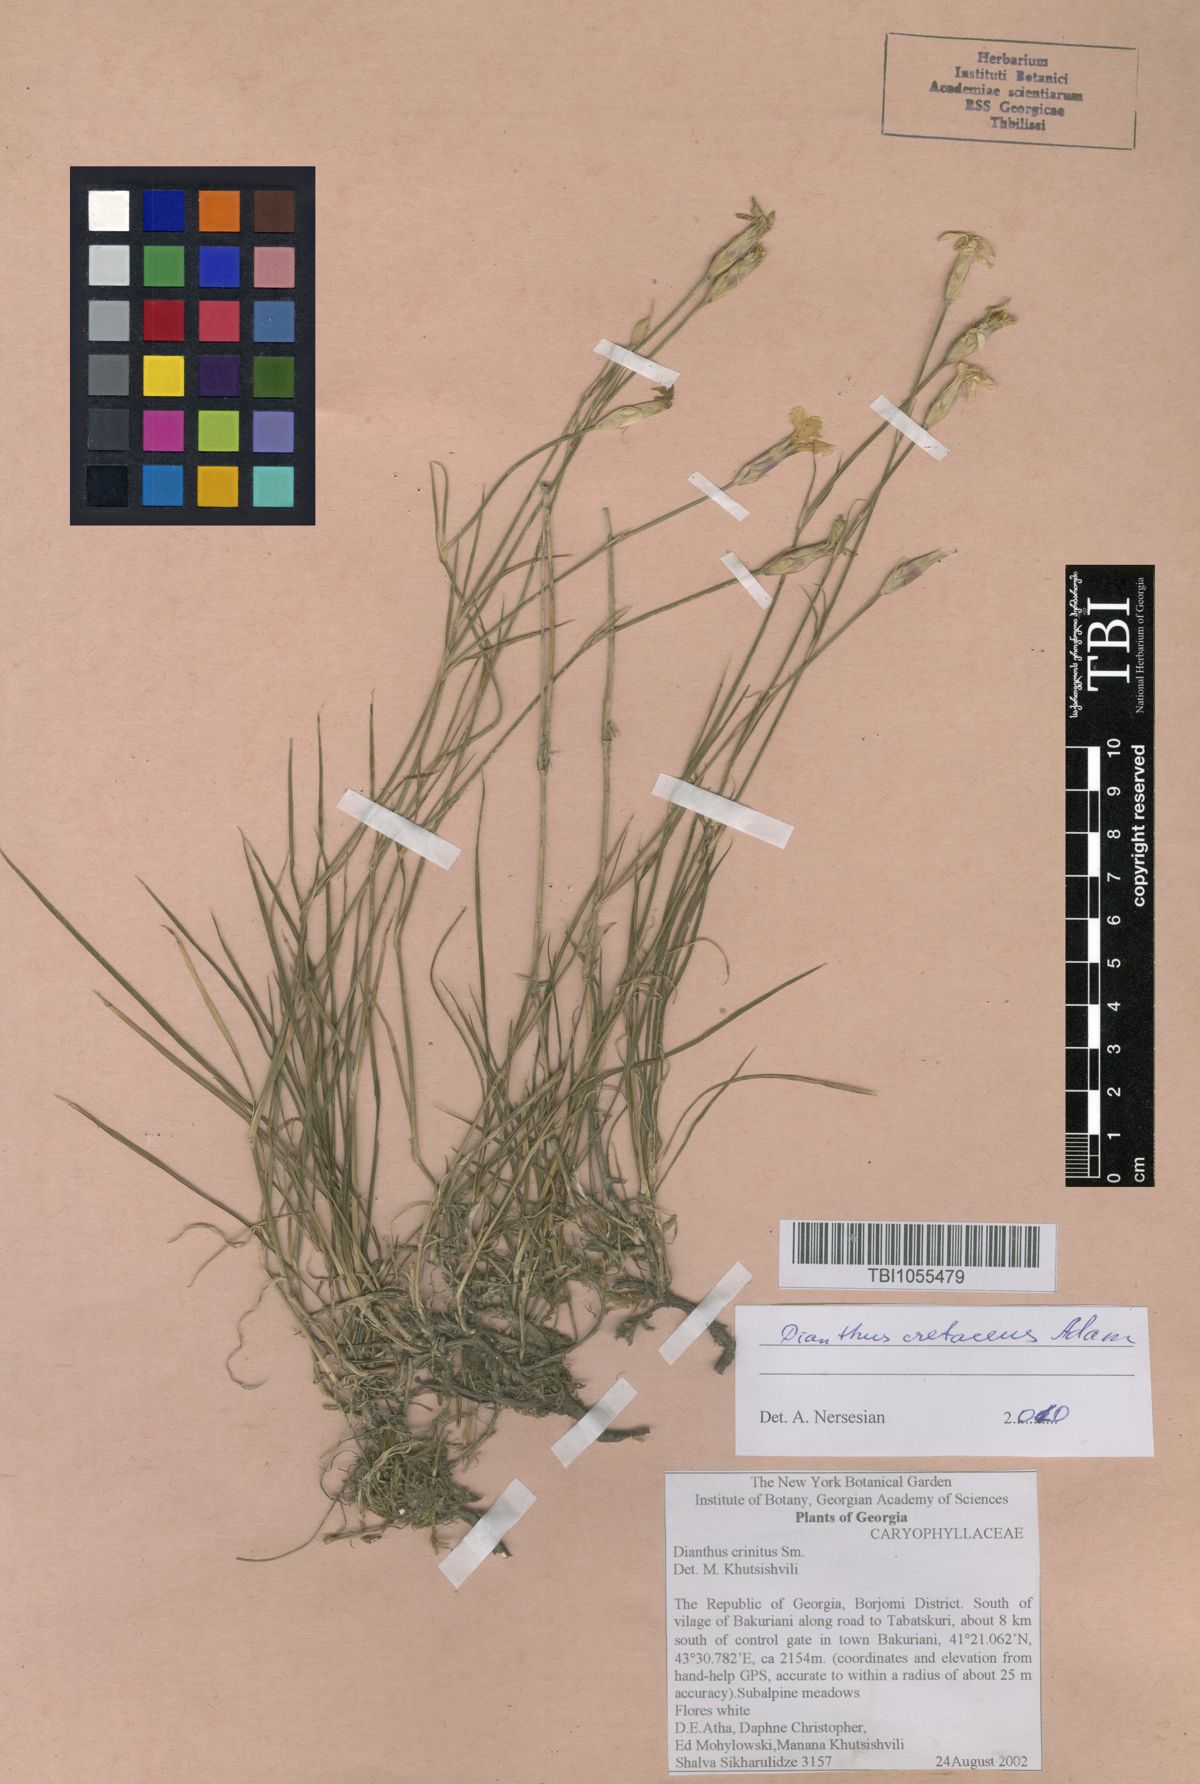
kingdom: Plantae
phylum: Tracheophyta
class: Magnoliopsida
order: Caryophyllales
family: Caryophyllaceae
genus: Dianthus
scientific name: Dianthus crinitus
